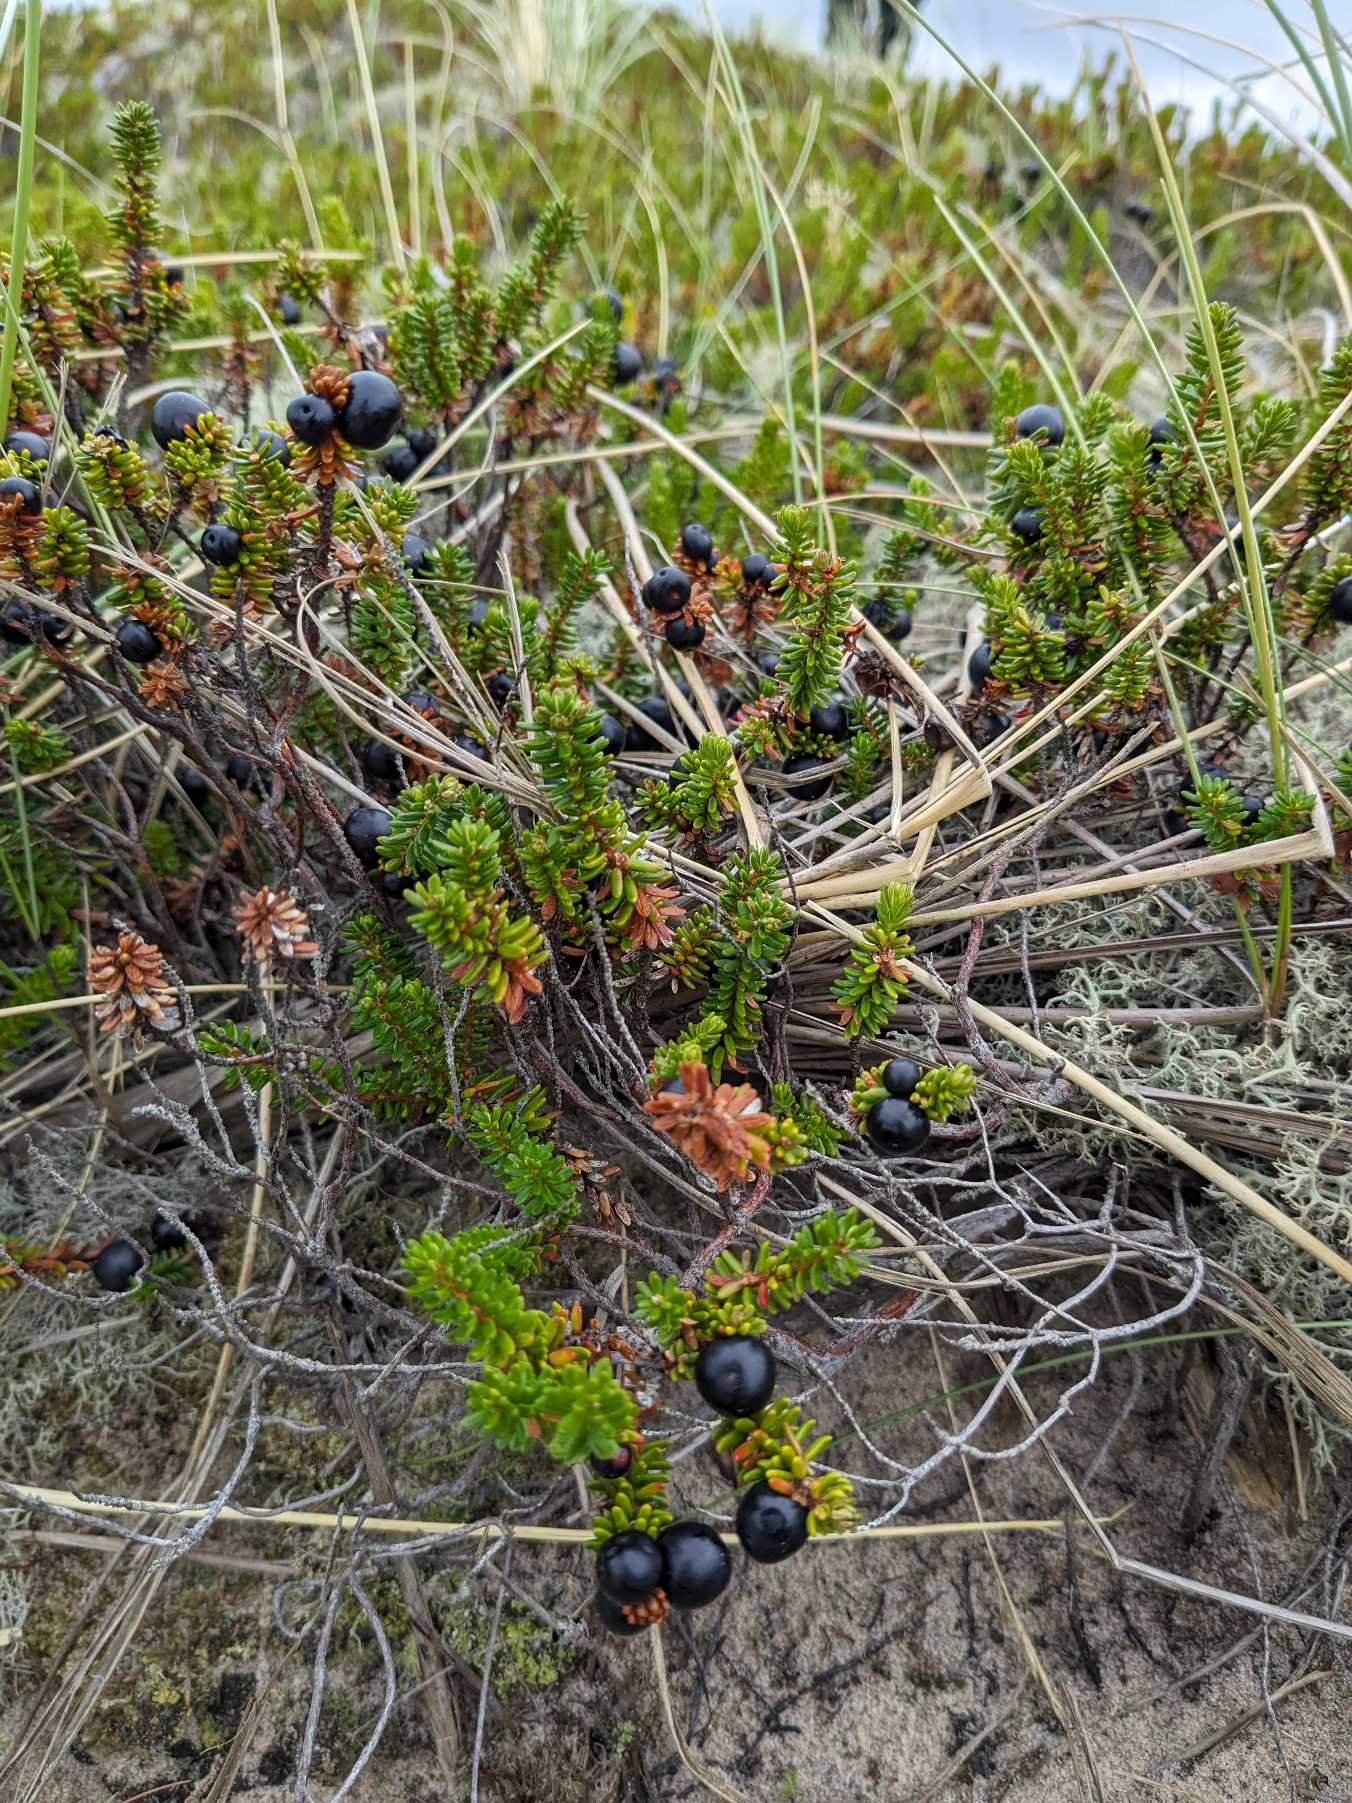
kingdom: Plantae
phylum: Tracheophyta
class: Magnoliopsida
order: Ericales
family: Ericaceae
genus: Empetrum
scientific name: Empetrum nigrum
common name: Revling
